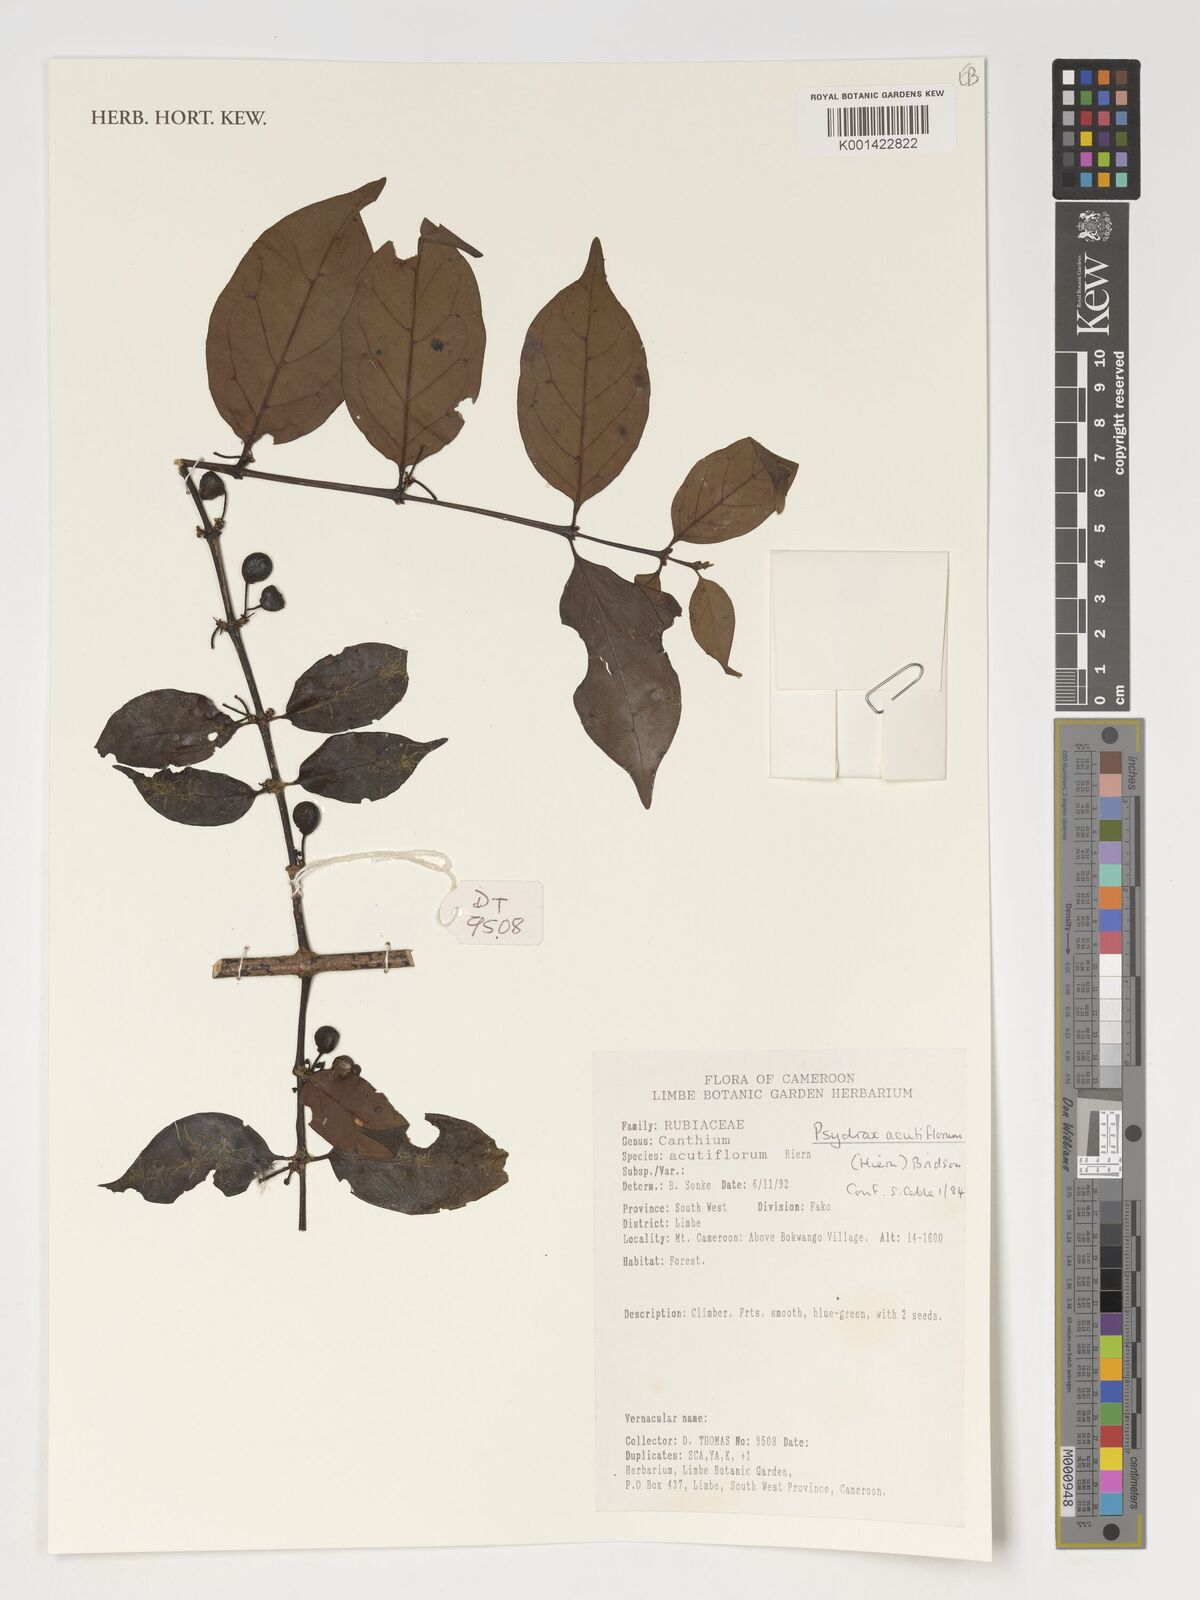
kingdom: Plantae
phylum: Tracheophyta
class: Magnoliopsida
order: Gentianales
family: Rubiaceae
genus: Psydrax
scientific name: Psydrax acutiflorus
